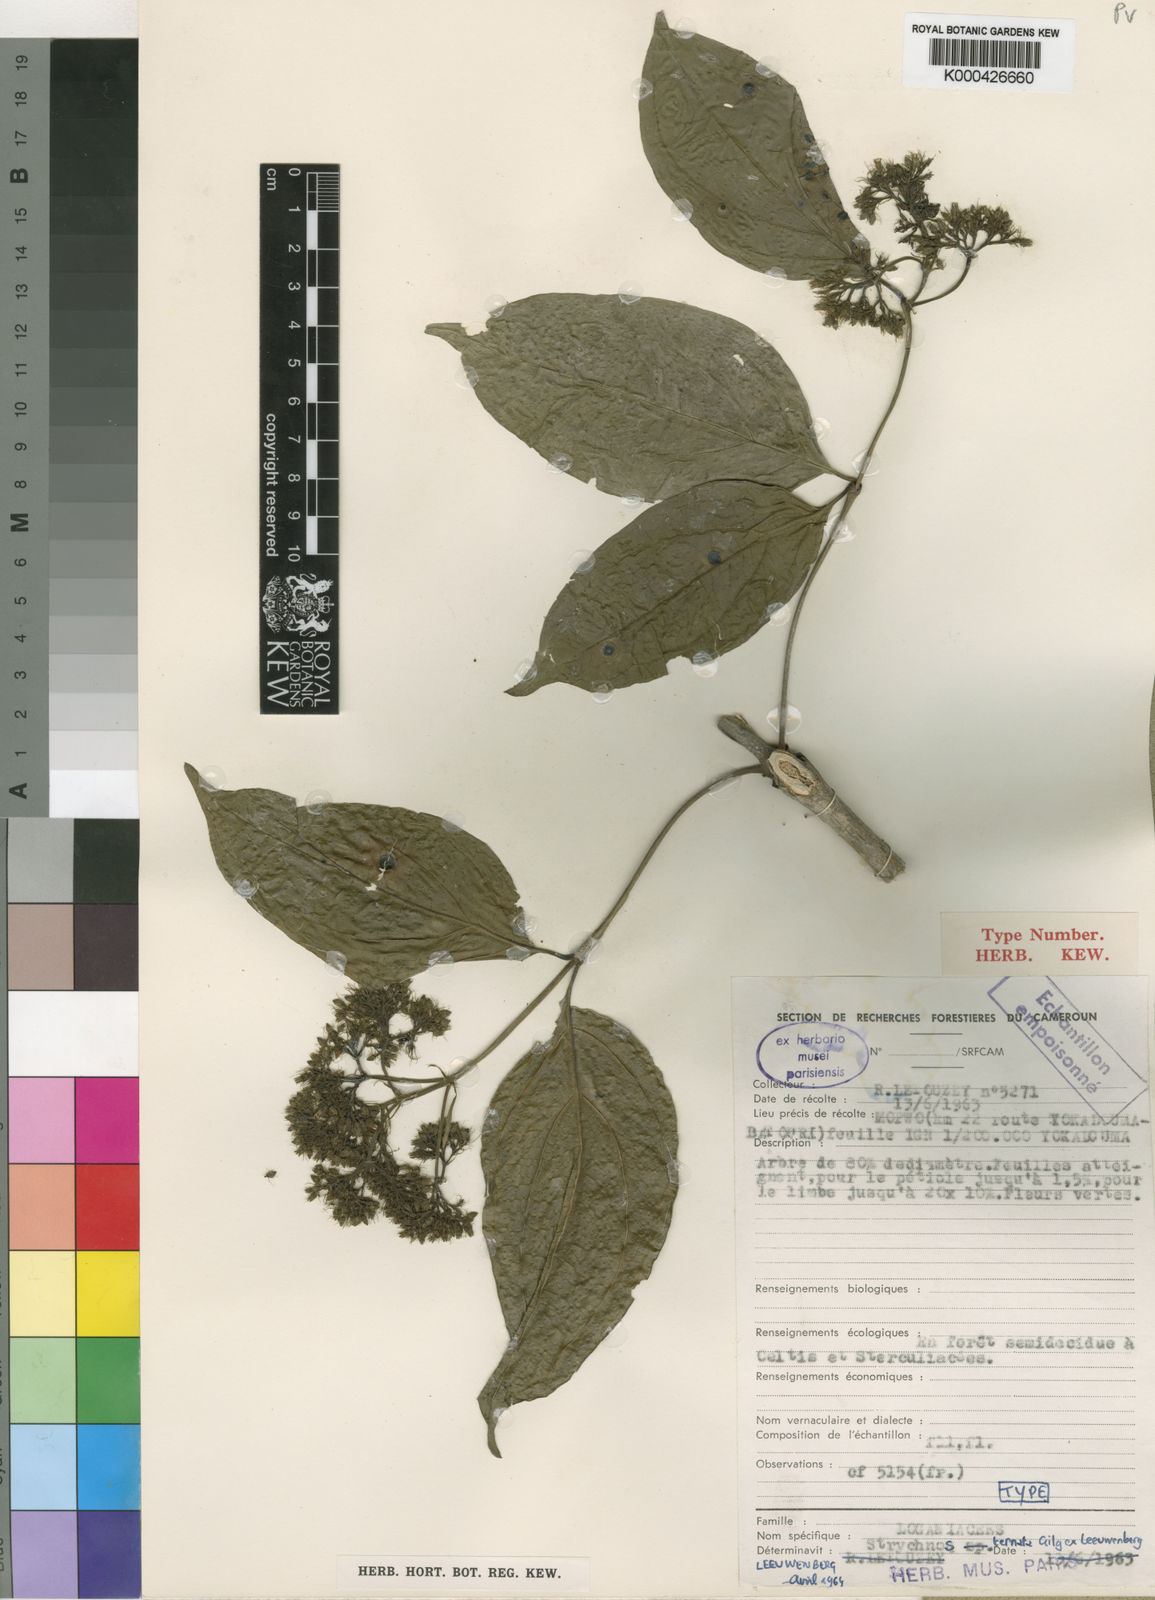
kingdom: Plantae
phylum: Tracheophyta
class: Magnoliopsida
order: Gentianales
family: Loganiaceae
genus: Strychnos
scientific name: Strychnos ternata
